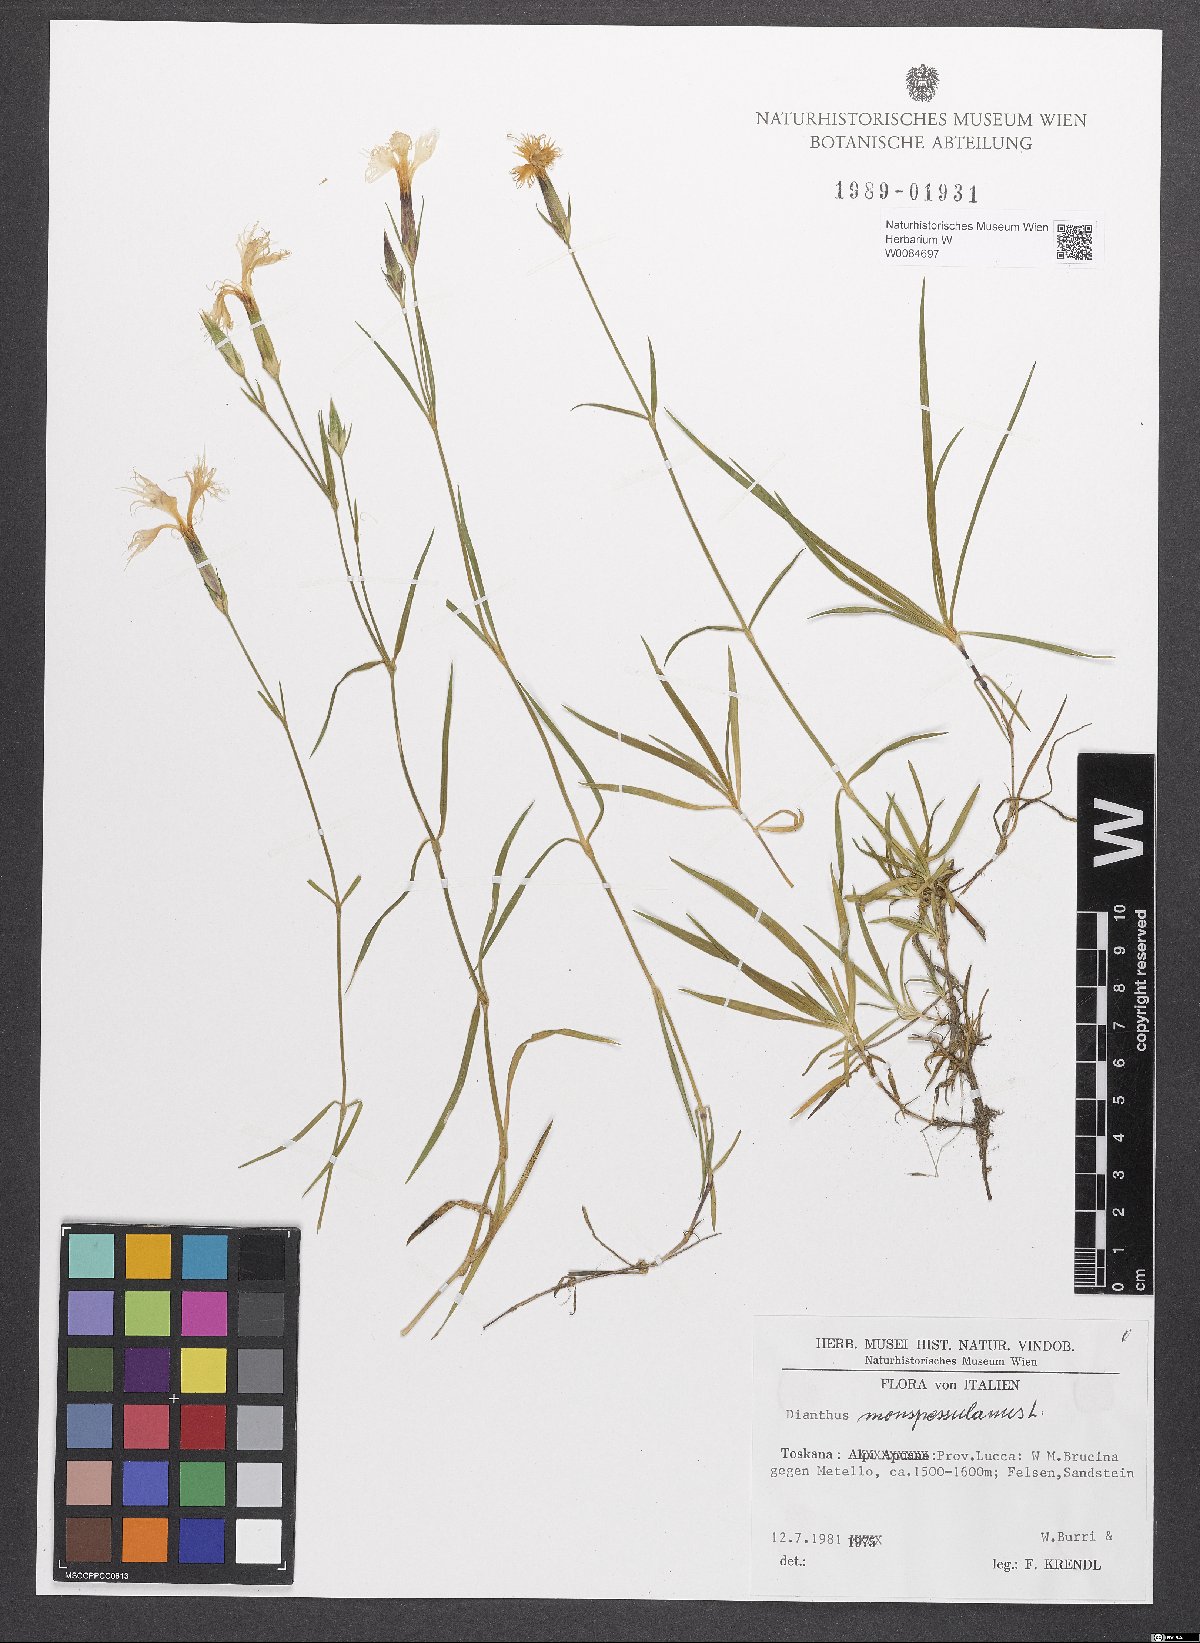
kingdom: Plantae
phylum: Tracheophyta
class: Magnoliopsida
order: Caryophyllales
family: Caryophyllaceae
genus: Dianthus
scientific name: Dianthus hyssopifolius
